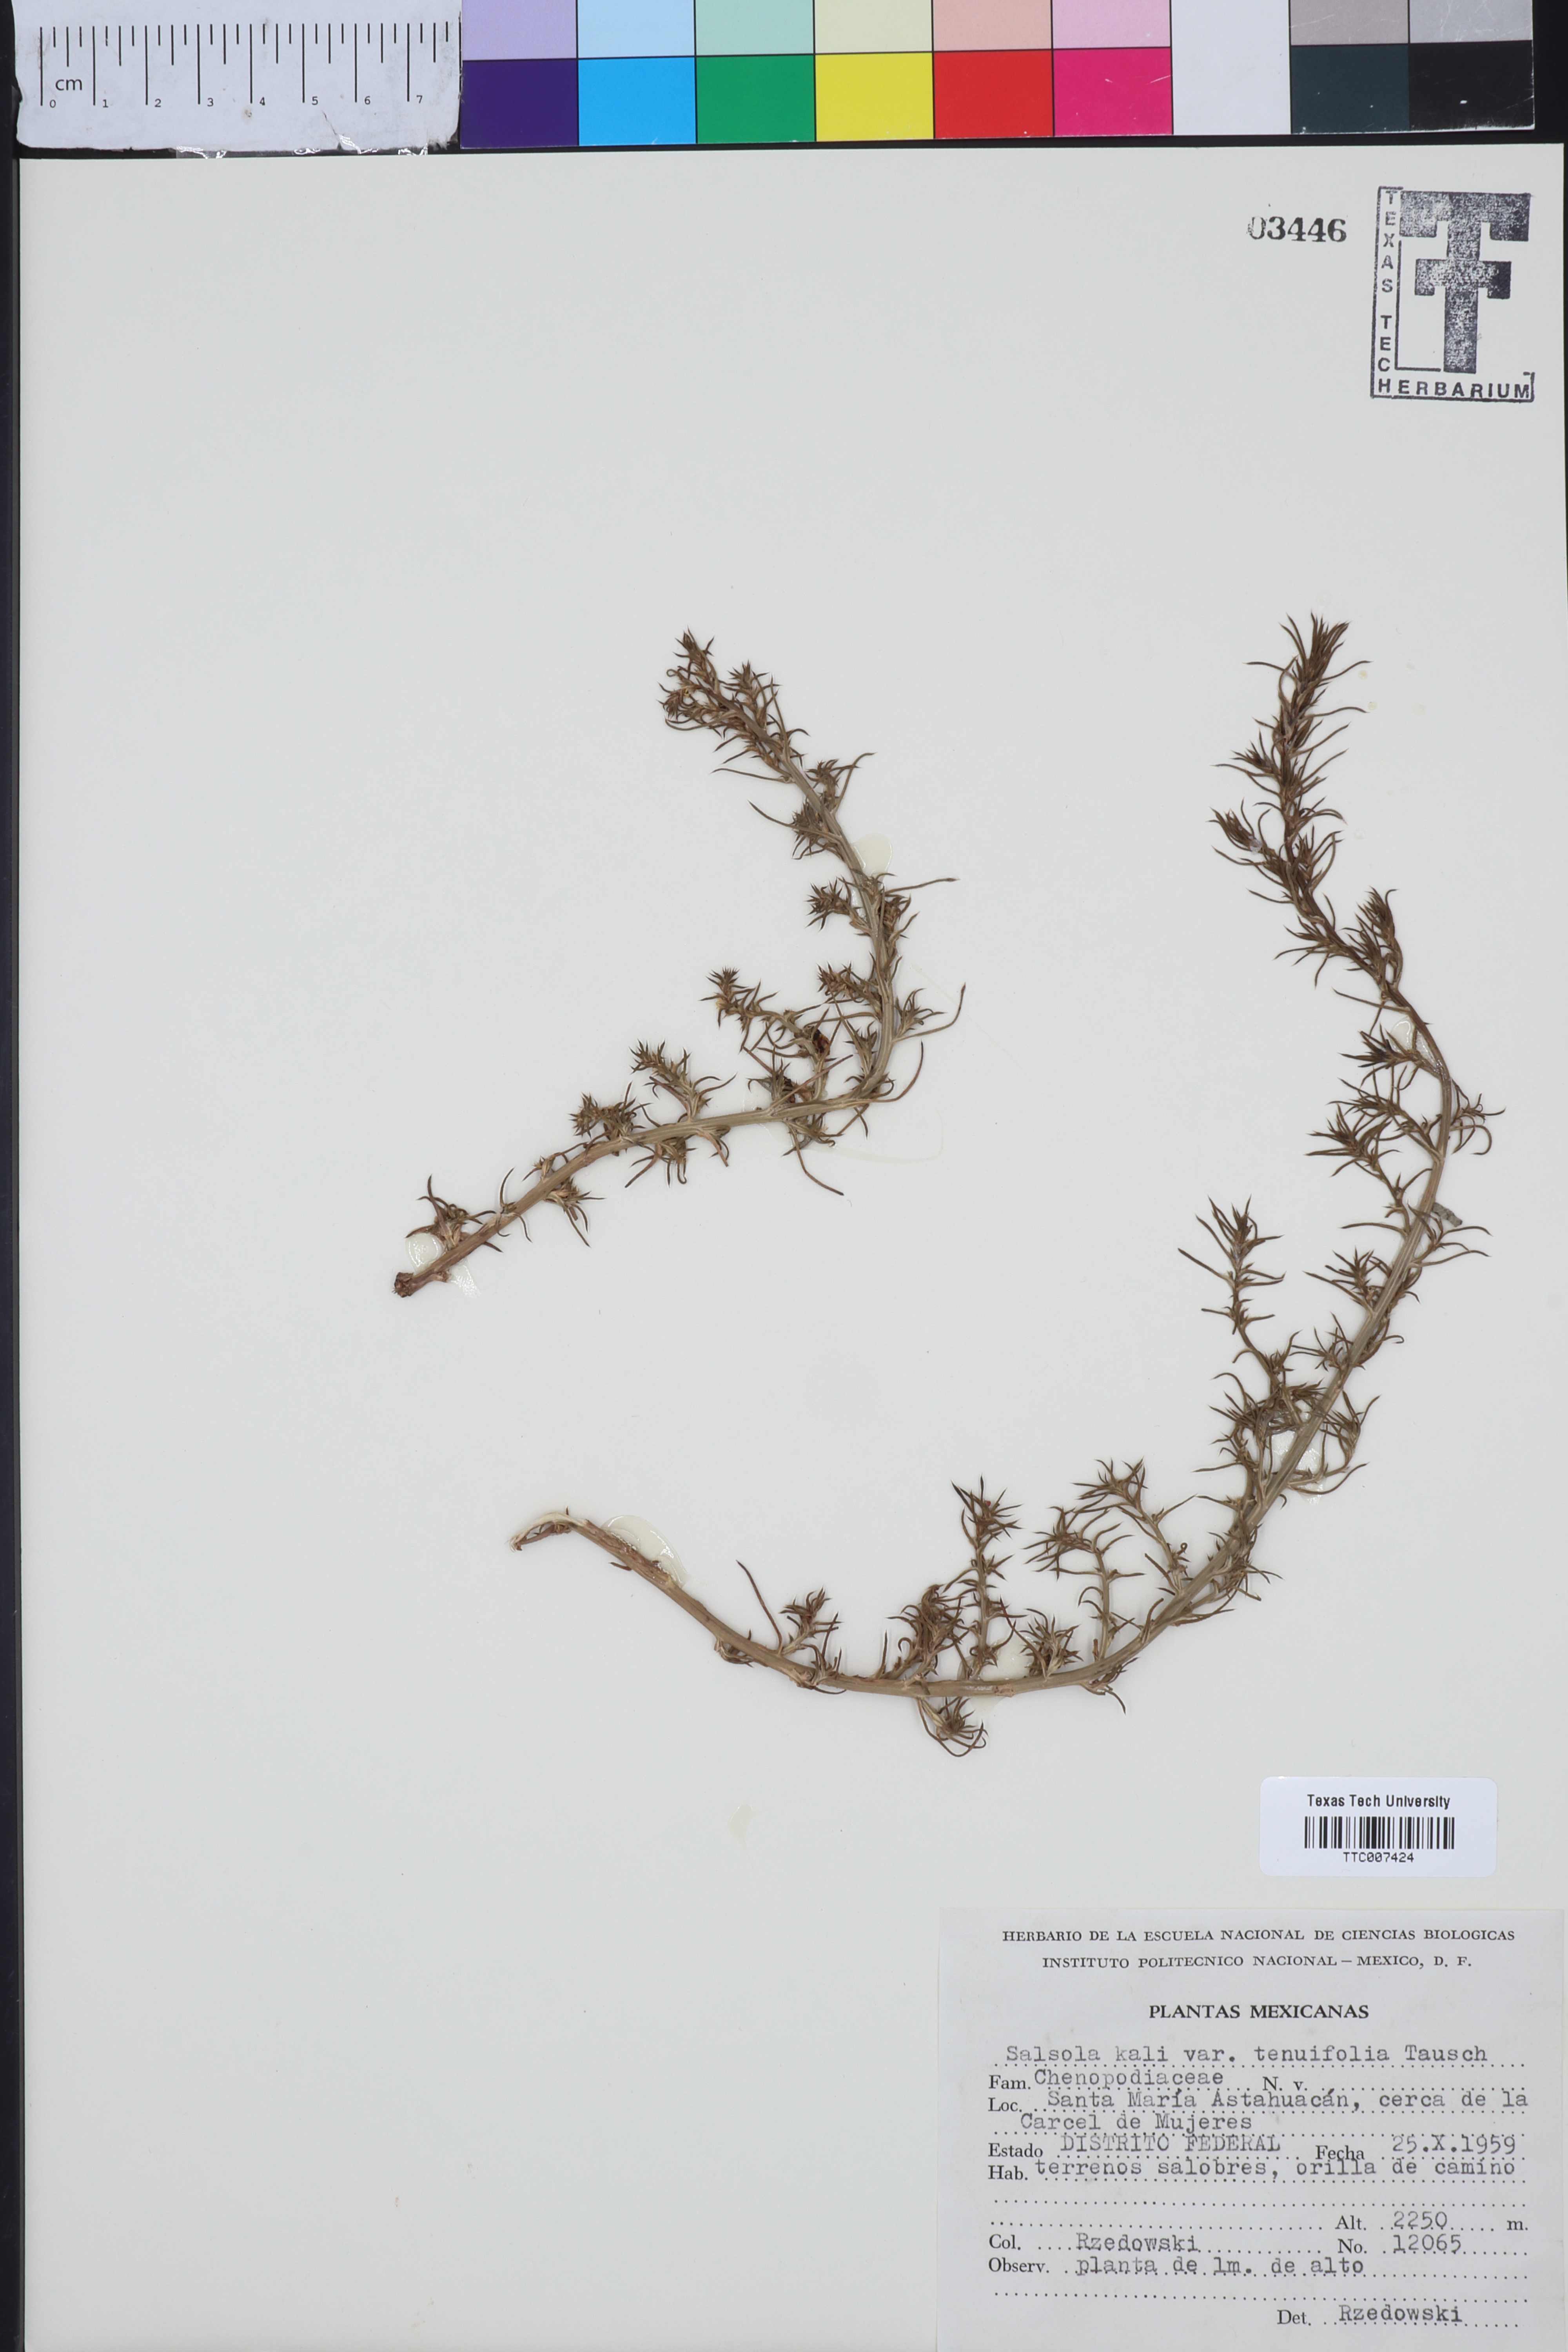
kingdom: Plantae
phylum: Tracheophyta
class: Magnoliopsida
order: Caryophyllales
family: Amaranthaceae
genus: Salsola
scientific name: Salsola tragus
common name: Prickly russian thistle
